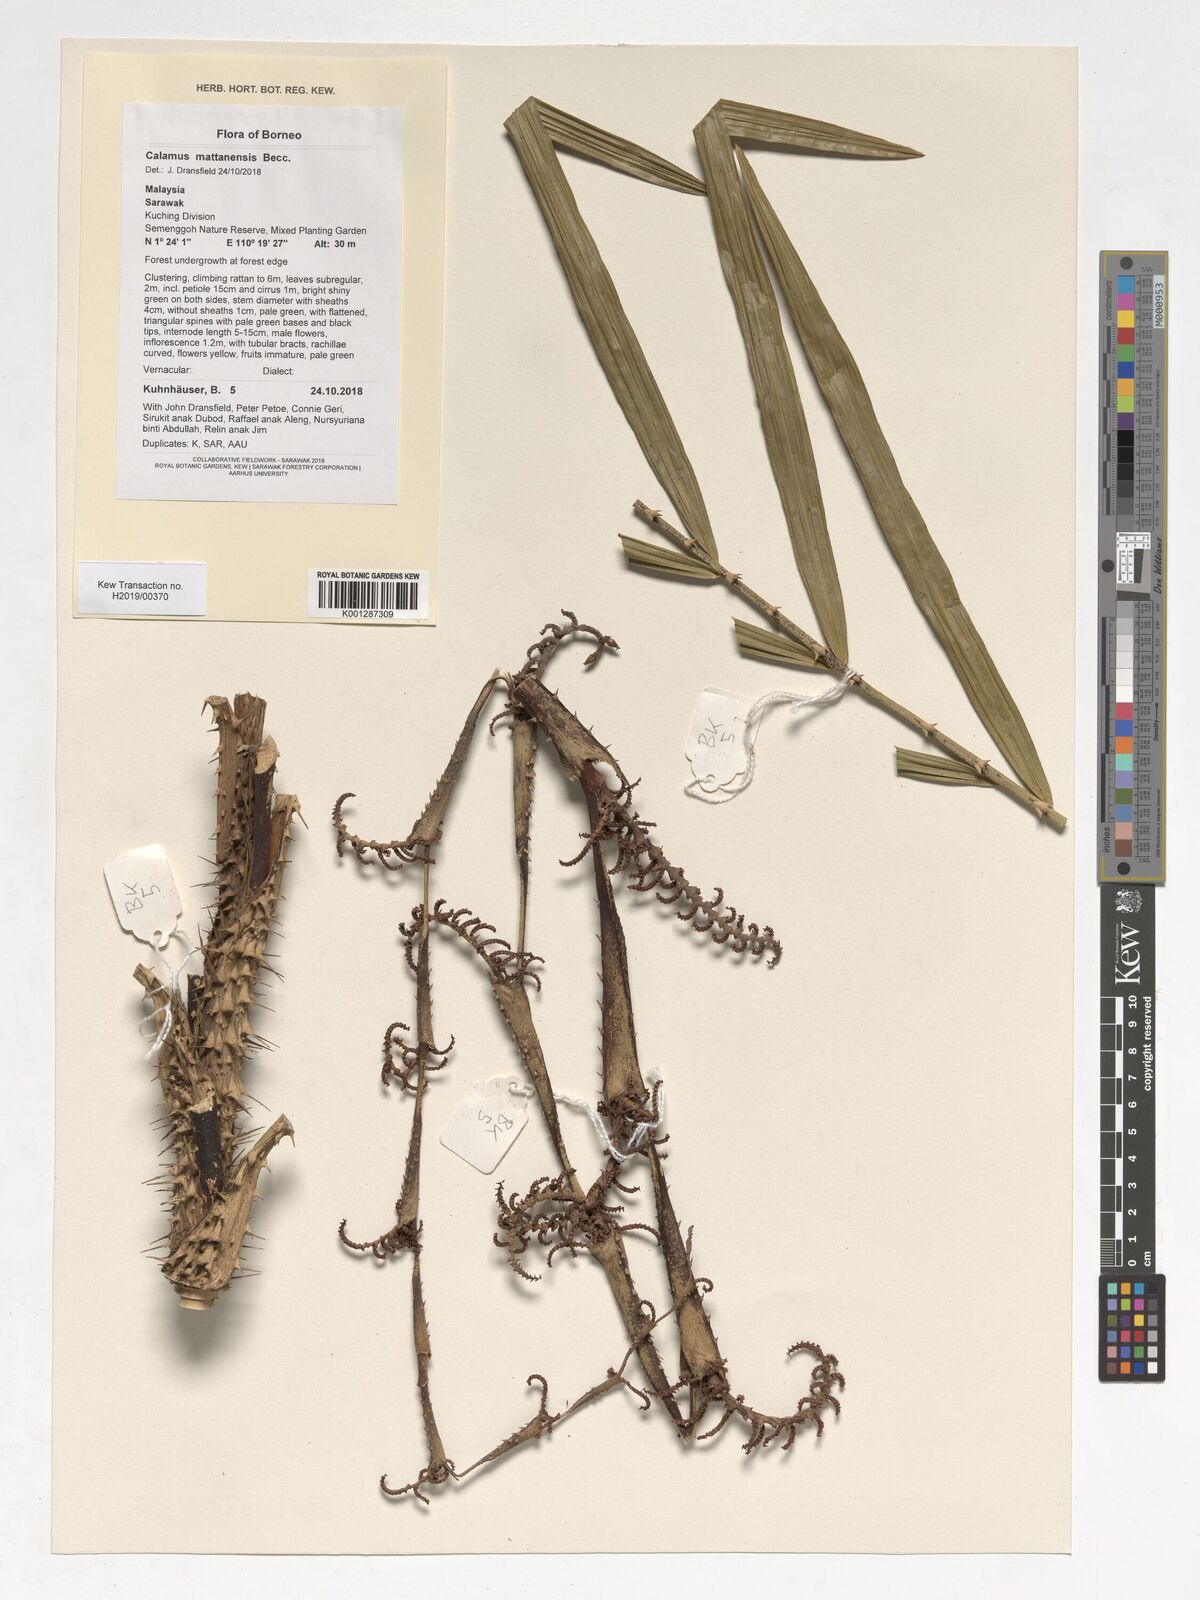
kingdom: Plantae
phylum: Tracheophyta
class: Liliopsida
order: Arecales
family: Arecaceae
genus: Calamus
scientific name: Calamus plicatus
